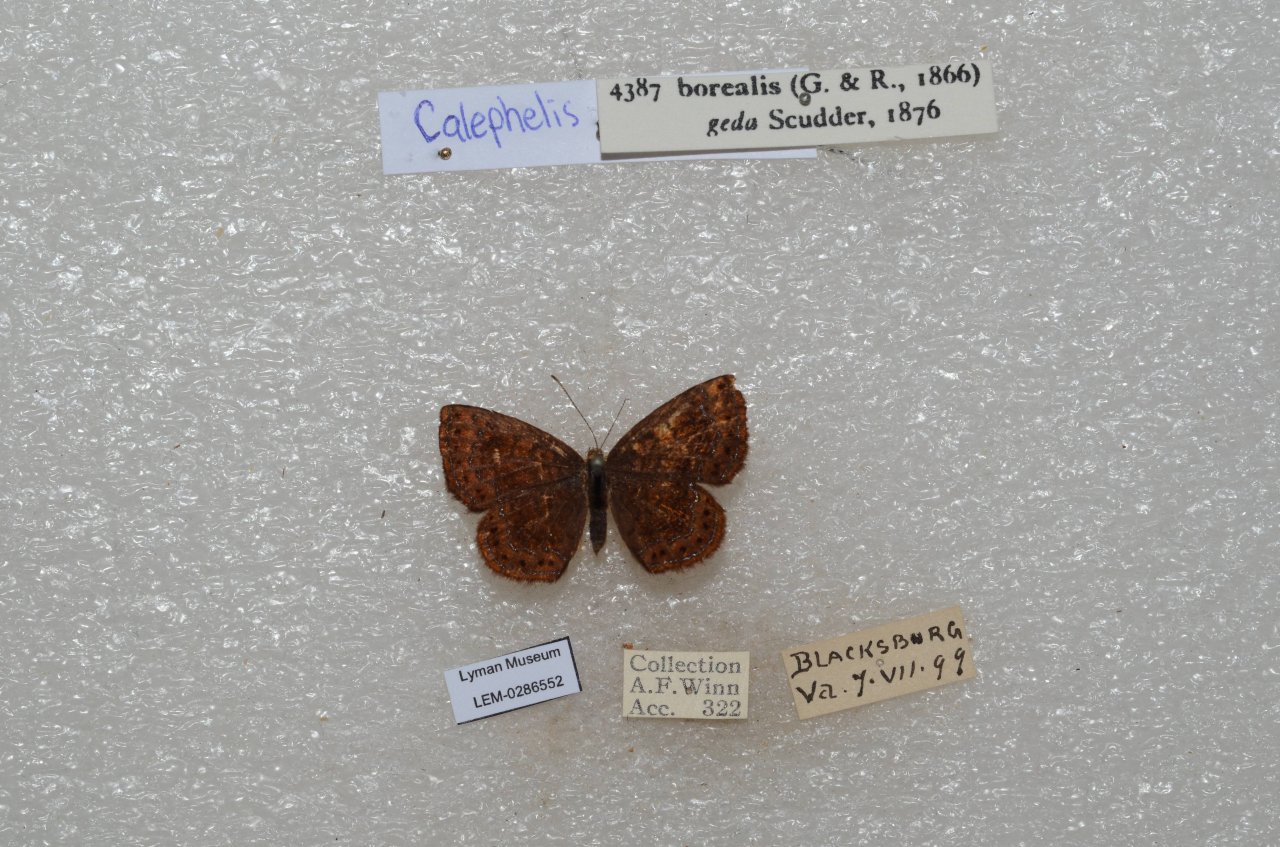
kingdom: Animalia
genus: Calephelis
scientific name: Calephelis borealis
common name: Northern Metalmark
